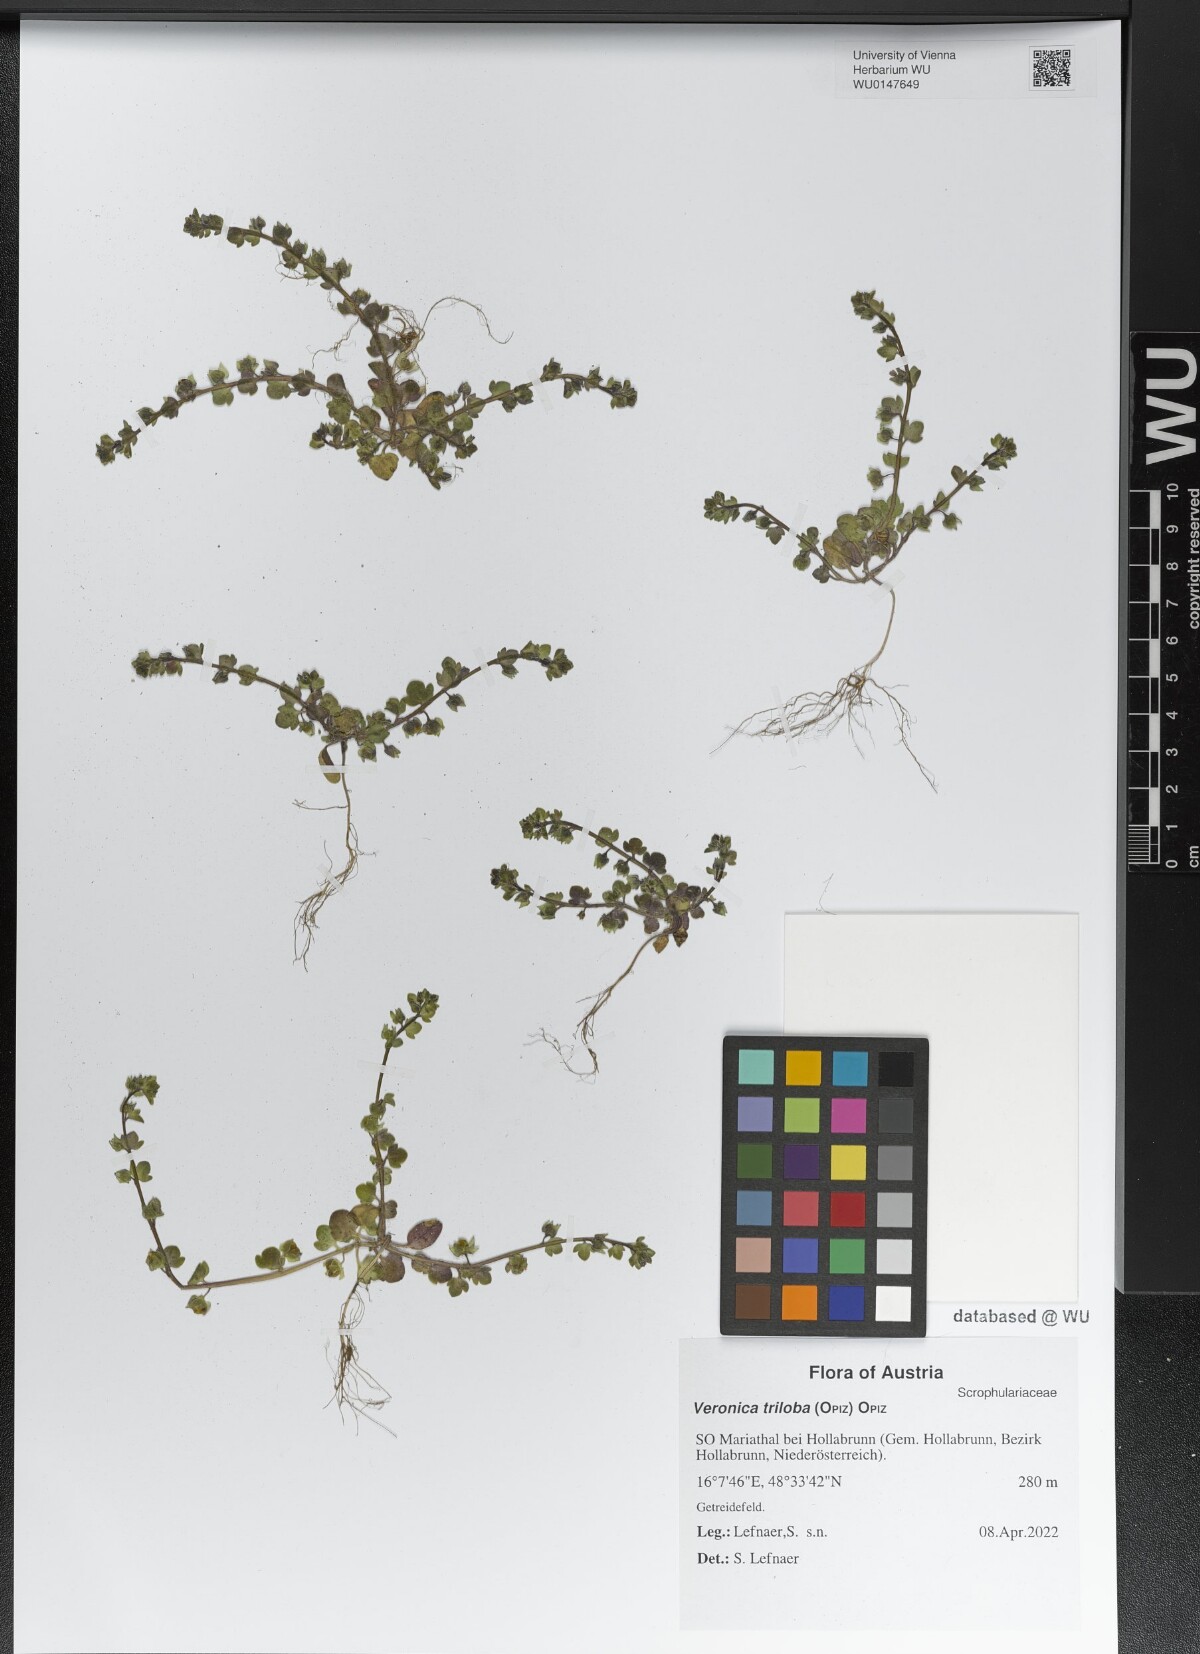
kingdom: Plantae
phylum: Tracheophyta
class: Magnoliopsida
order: Lamiales
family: Plantaginaceae
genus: Veronica
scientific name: Veronica triloba
